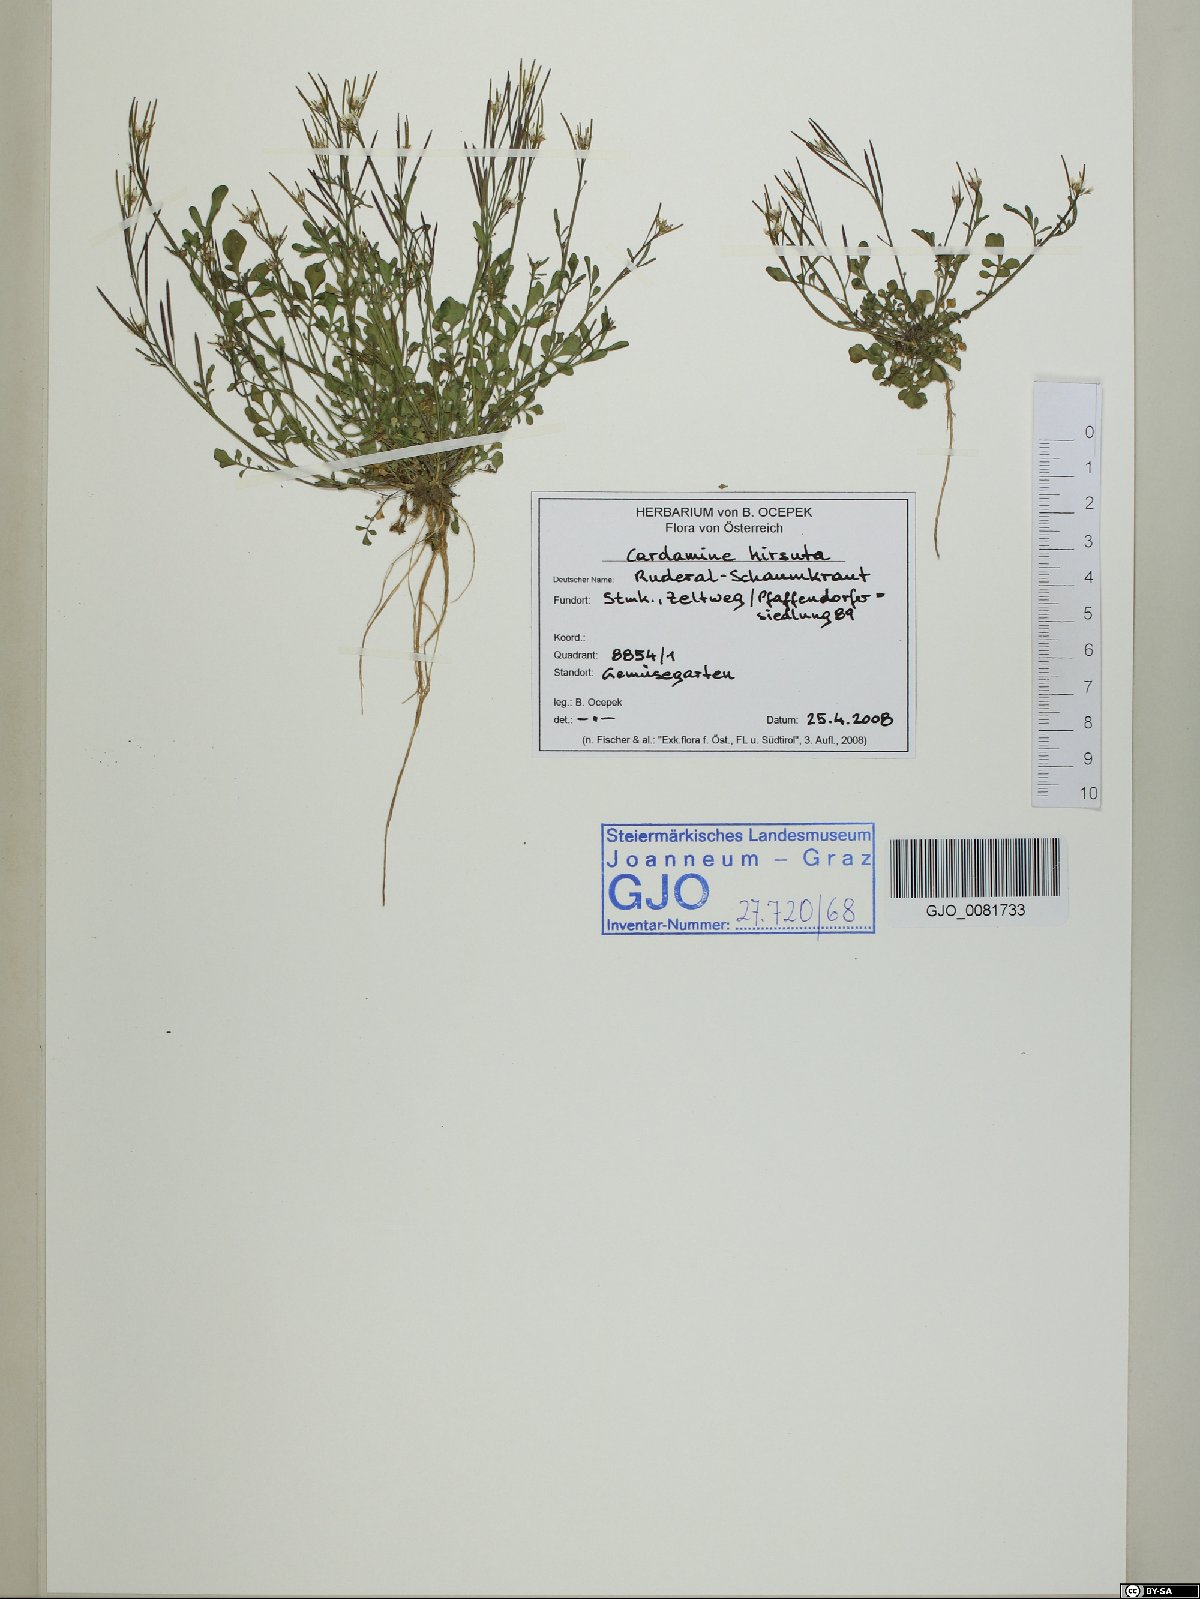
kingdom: Plantae
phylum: Tracheophyta
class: Magnoliopsida
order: Brassicales
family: Brassicaceae
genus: Cardamine
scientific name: Cardamine hirsuta
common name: Hairy bittercress
